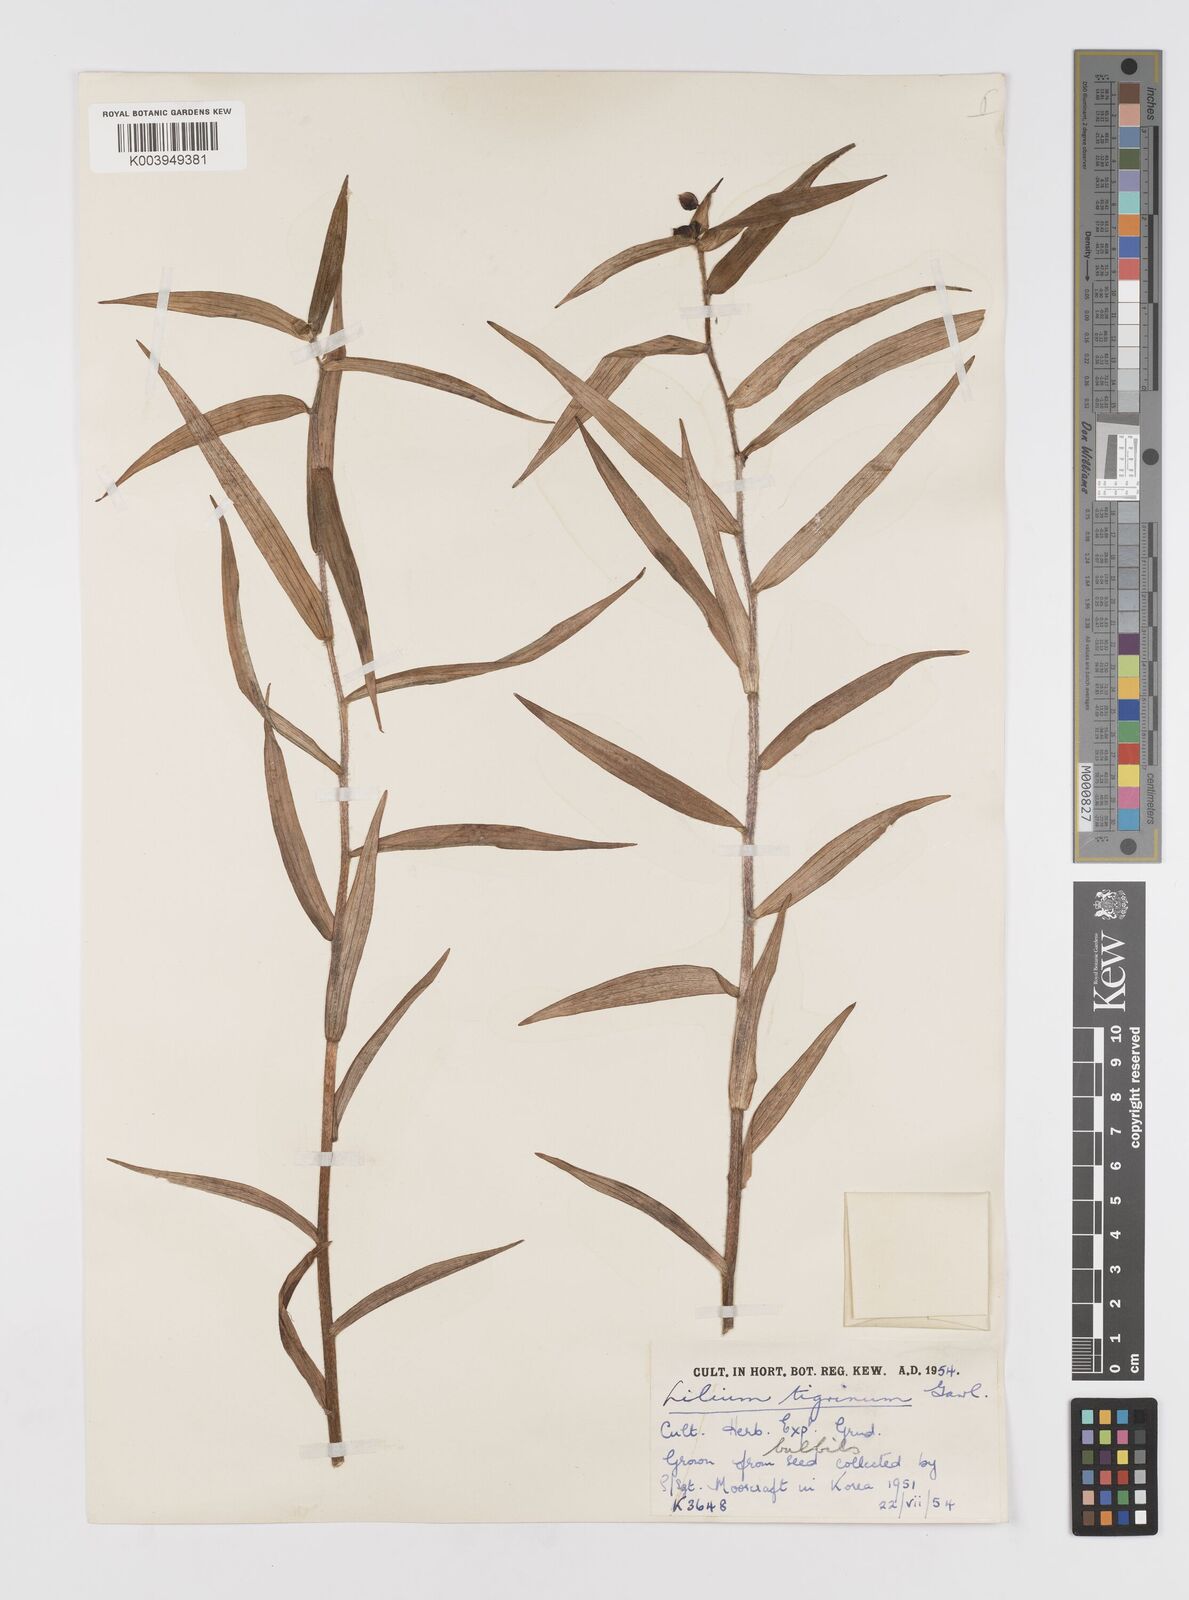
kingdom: Plantae
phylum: Tracheophyta
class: Liliopsida
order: Liliales
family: Liliaceae
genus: Lilium
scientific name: Lilium lancifolium
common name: Tiger lily
